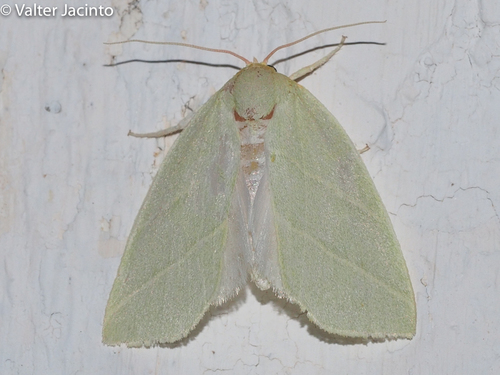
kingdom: Animalia
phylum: Arthropoda
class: Insecta
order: Lepidoptera
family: Nolidae
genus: Bena
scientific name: Bena bicolorana
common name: Scarce silver-lines
